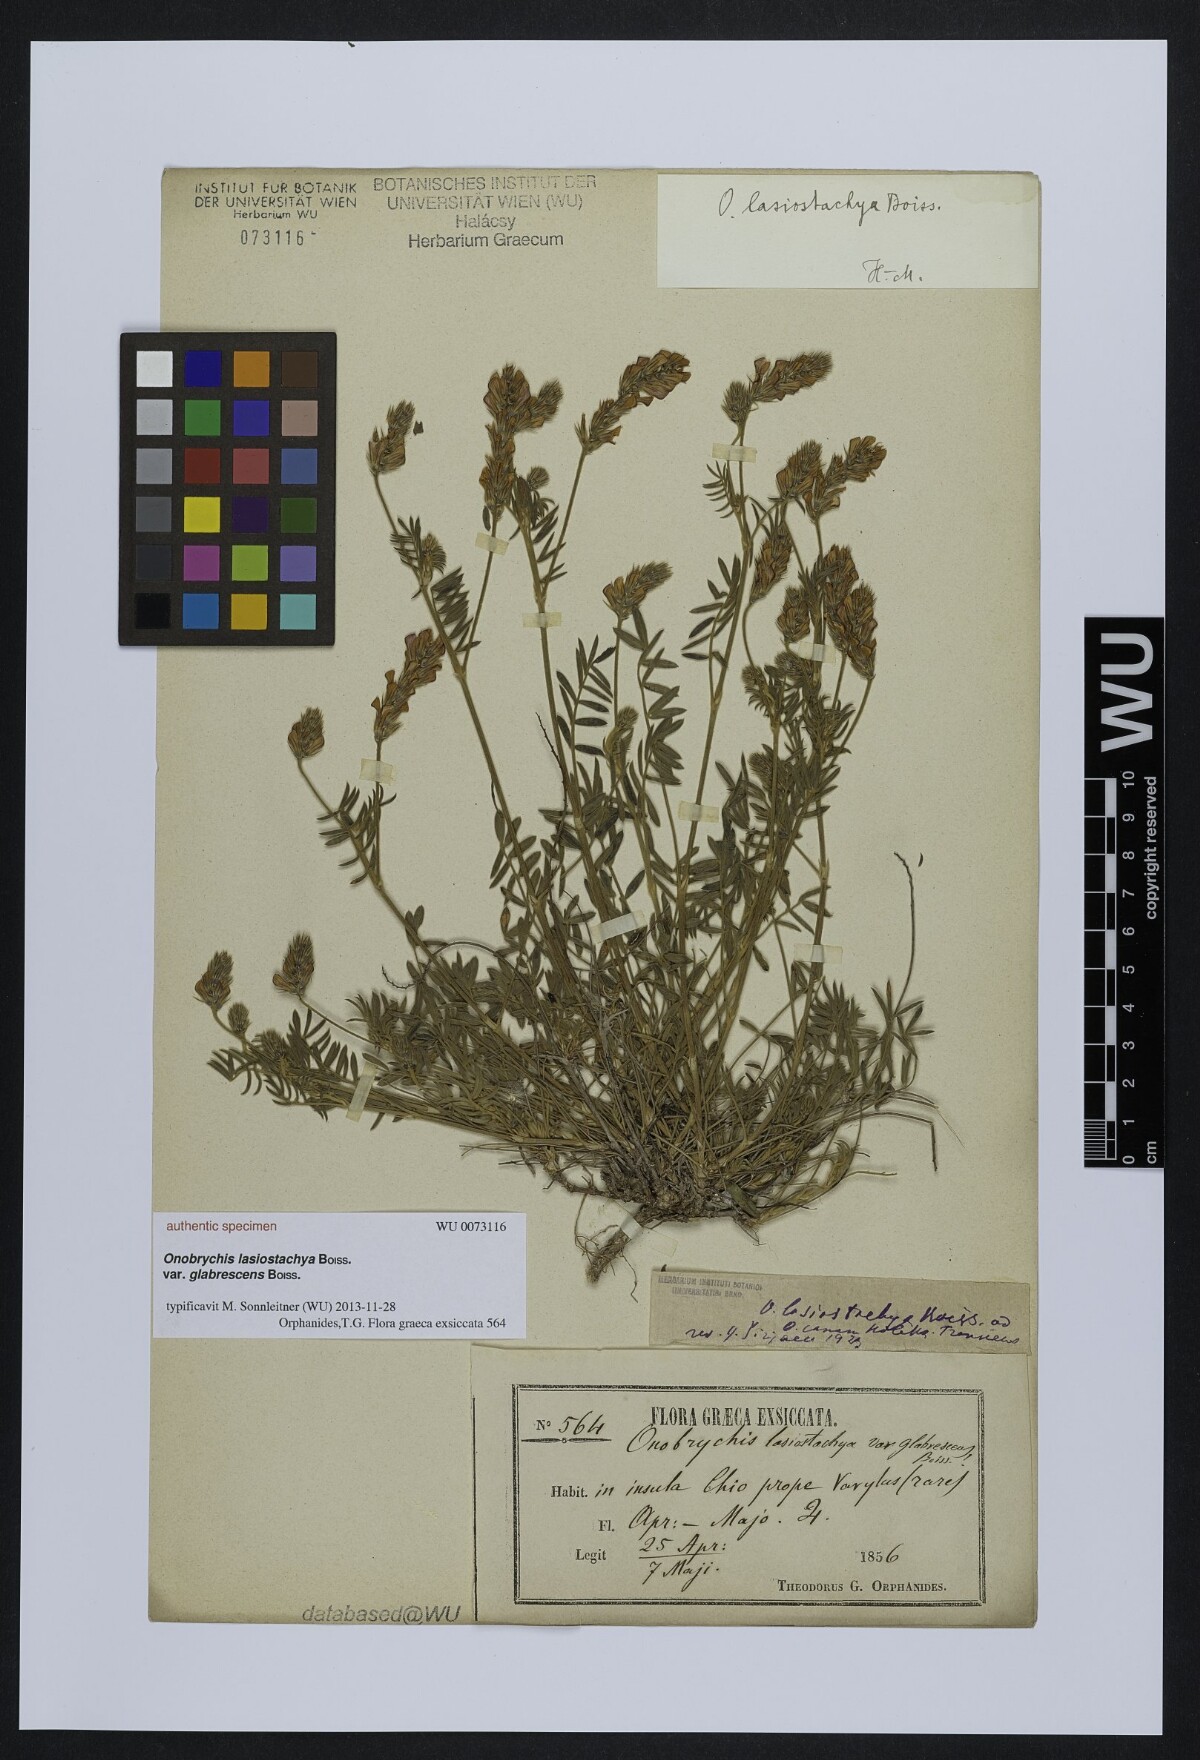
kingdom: Plantae
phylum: Tracheophyta
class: Magnoliopsida
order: Fabales
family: Fabaceae
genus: Onobrychis
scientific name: Onobrychis arenaria
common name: Sand esparcet
